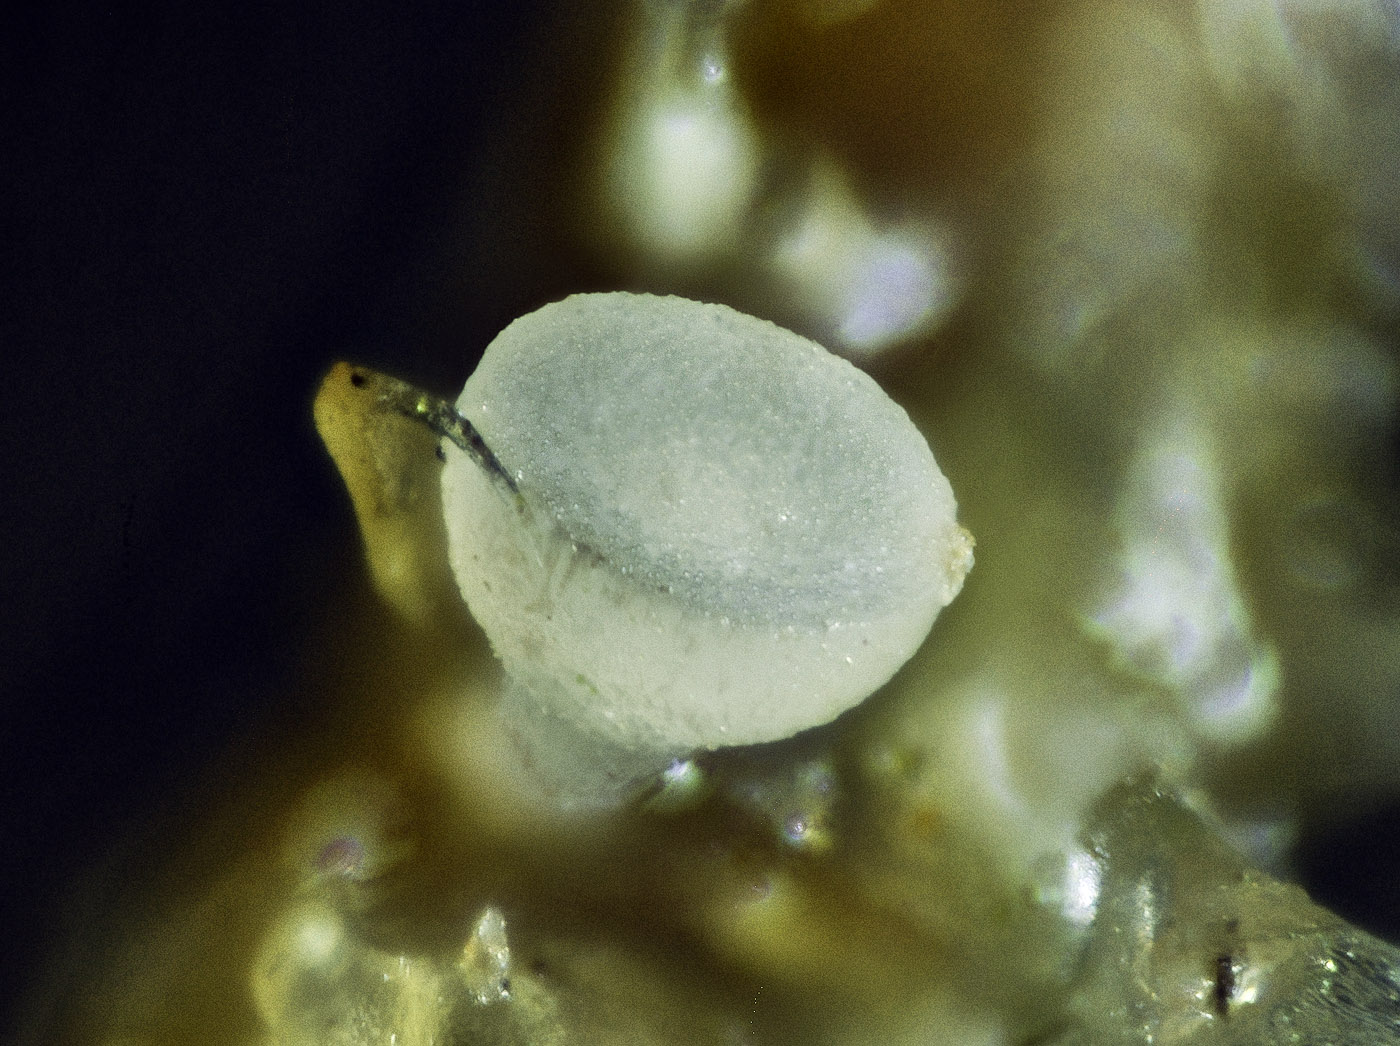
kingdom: Fungi
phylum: Ascomycota
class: Leotiomycetes
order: Helotiales
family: Helotiaceae
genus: Bryoscyphus
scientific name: Bryoscyphus phascoides
